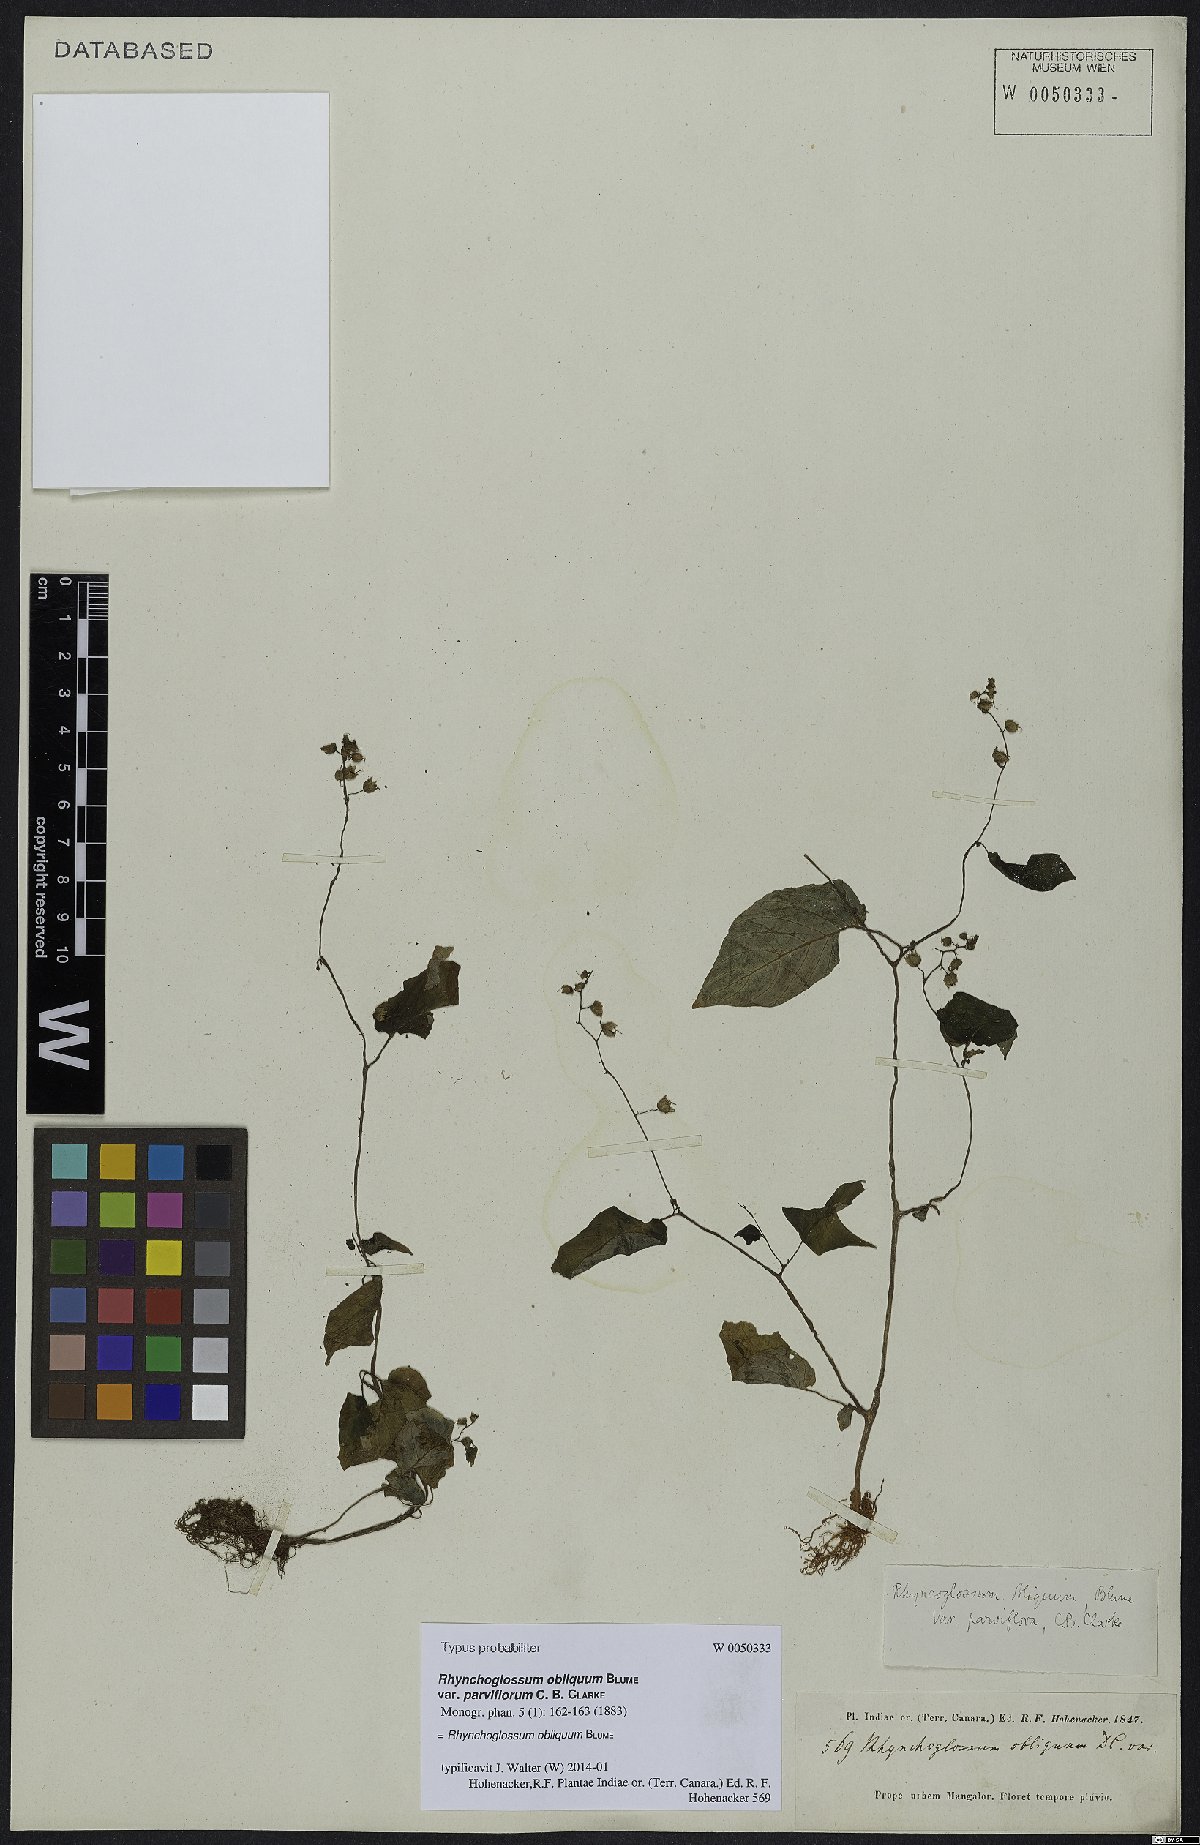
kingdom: Plantae
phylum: Tracheophyta
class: Magnoliopsida
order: Lamiales
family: Gesneriaceae
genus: Rhynchoglossum
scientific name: Rhynchoglossum obliquum
